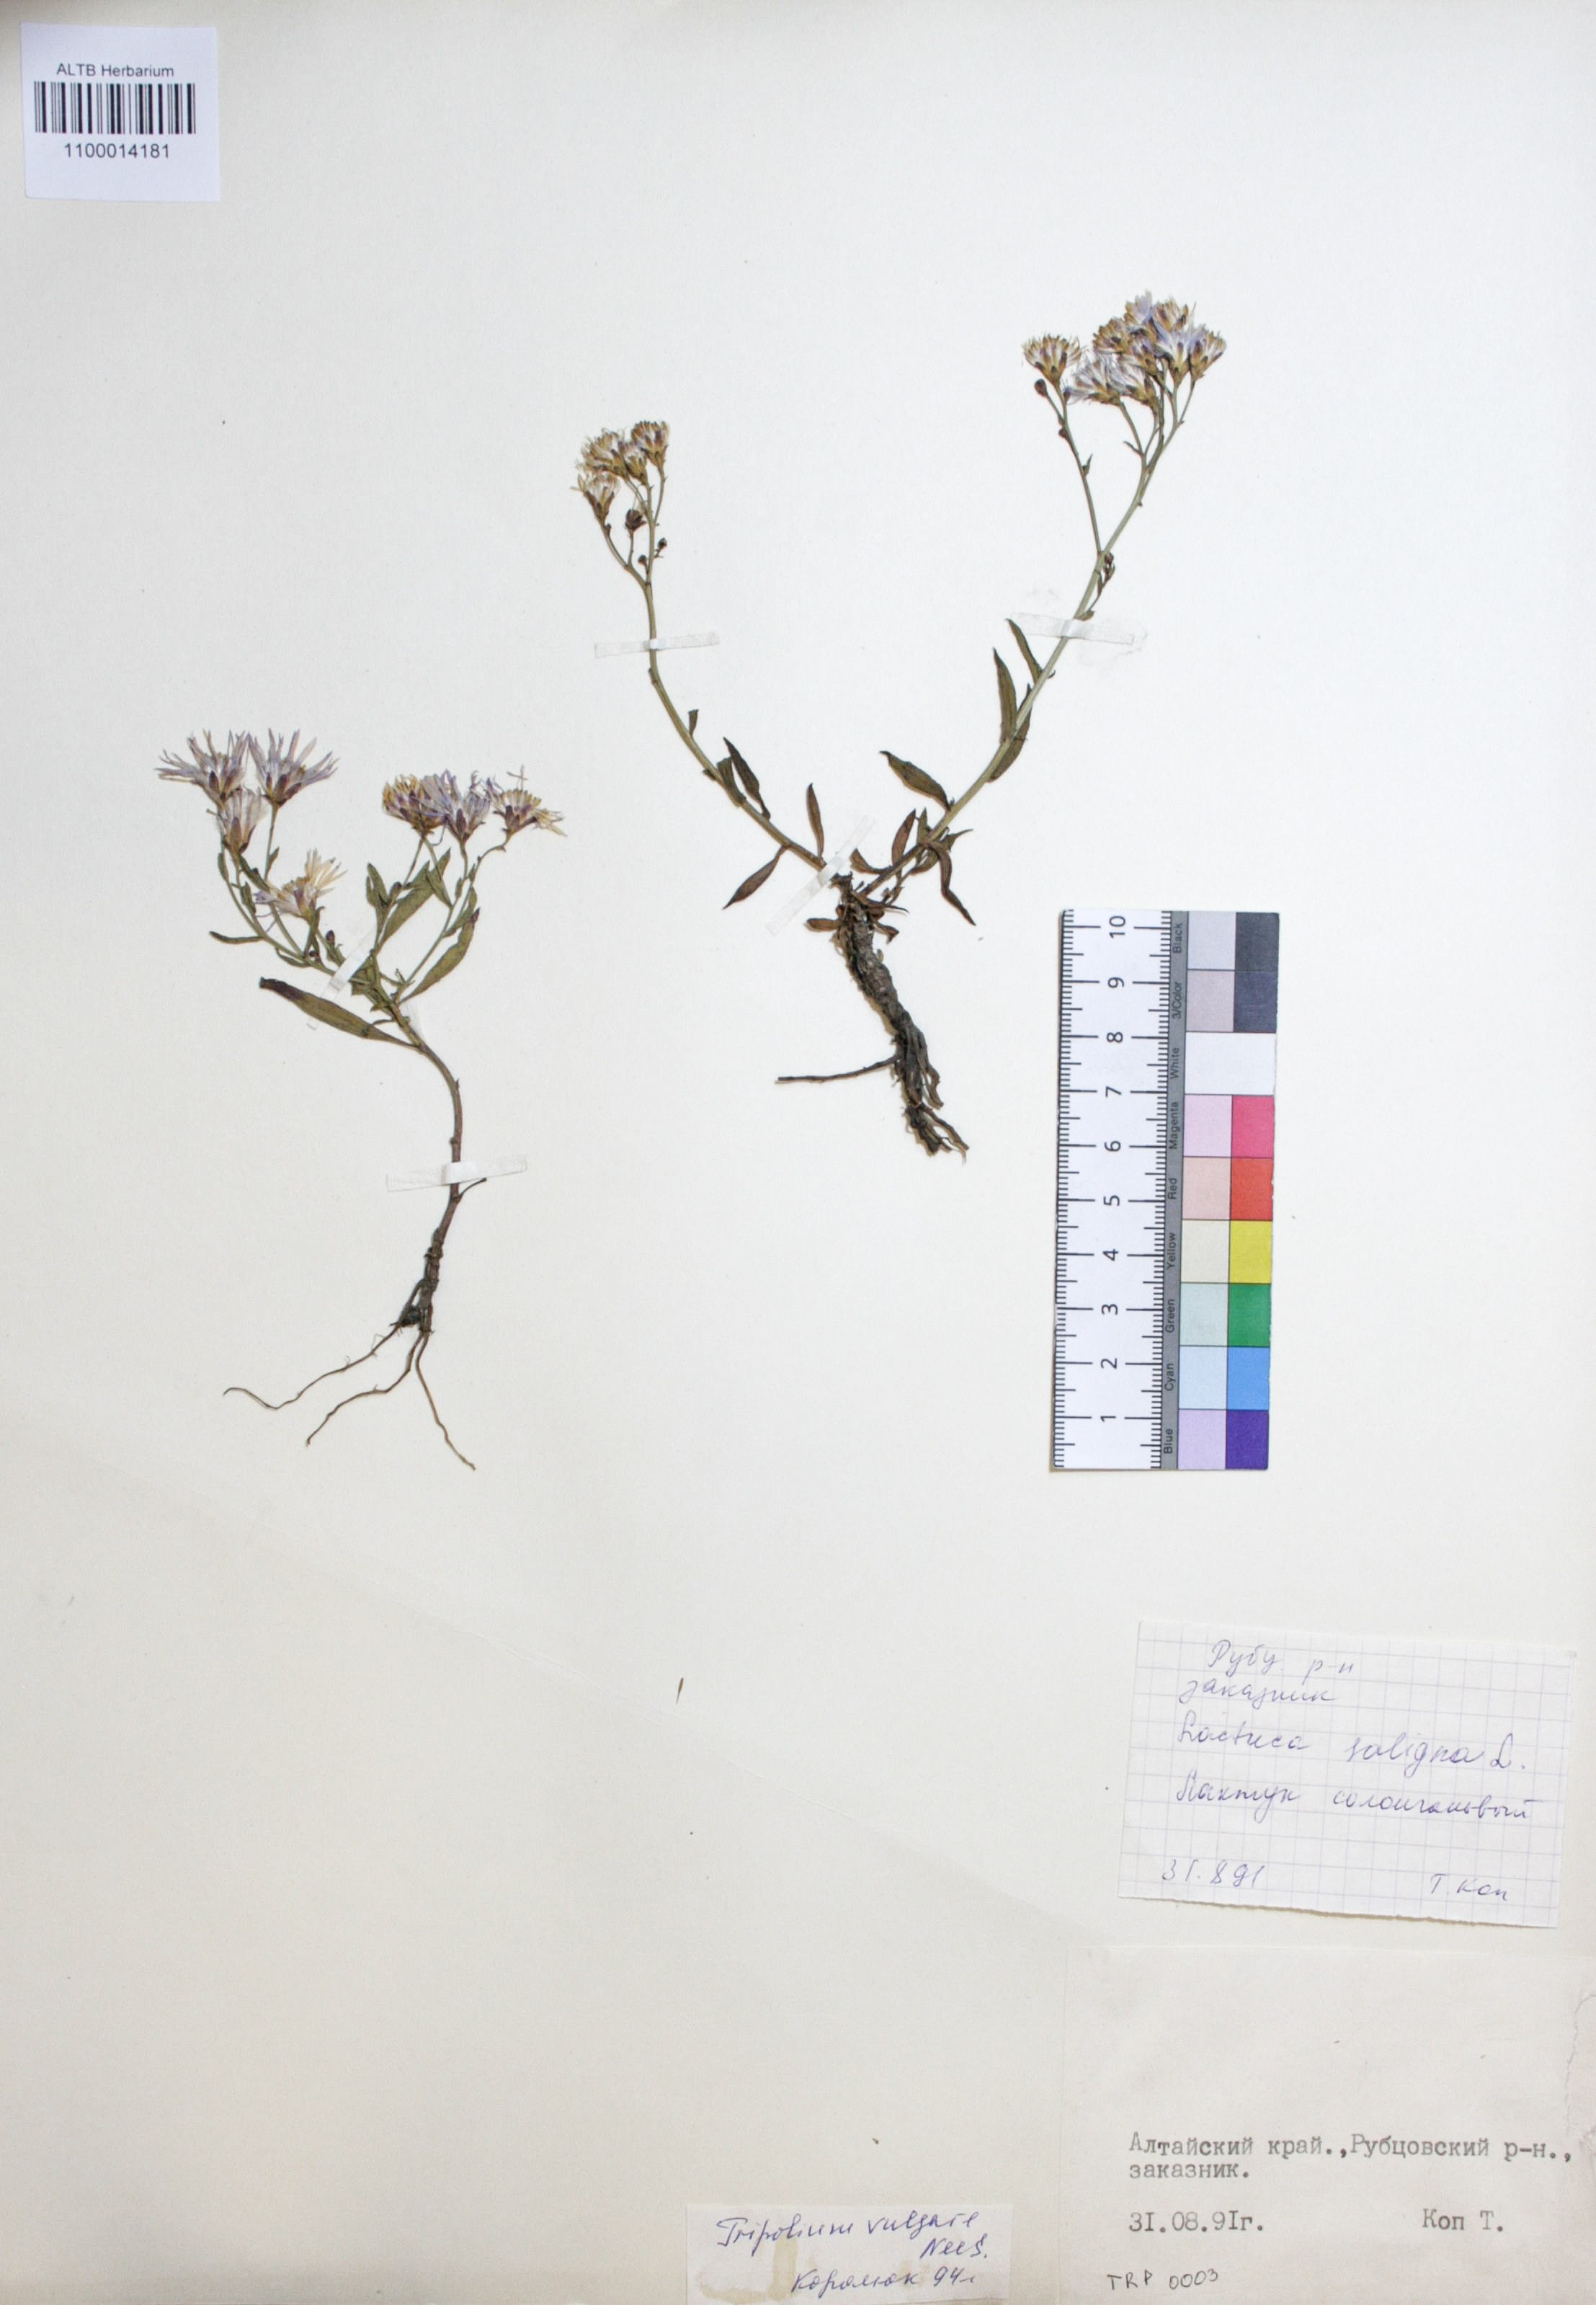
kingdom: Plantae
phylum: Tracheophyta
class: Magnoliopsida
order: Asterales
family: Asteraceae
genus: Tripolium
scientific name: Tripolium pannonicum
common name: Sea aster
